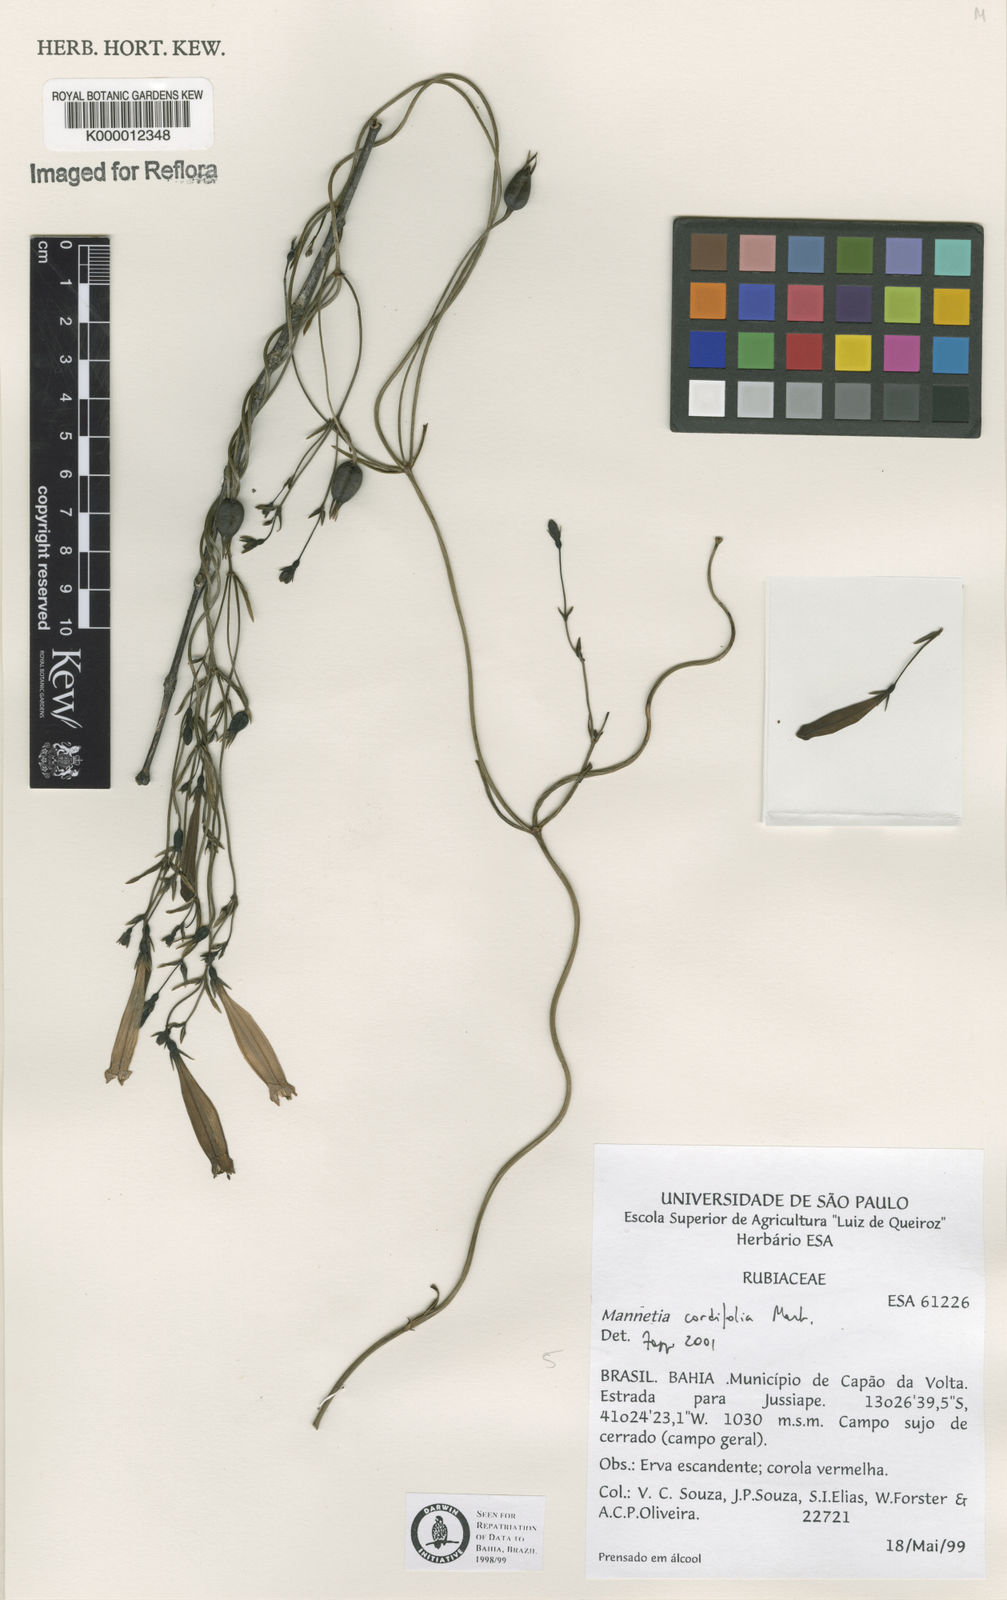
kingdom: Plantae
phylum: Tracheophyta
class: Magnoliopsida
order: Gentianales
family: Rubiaceae
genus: Manettia
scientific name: Manettia cordifolia
